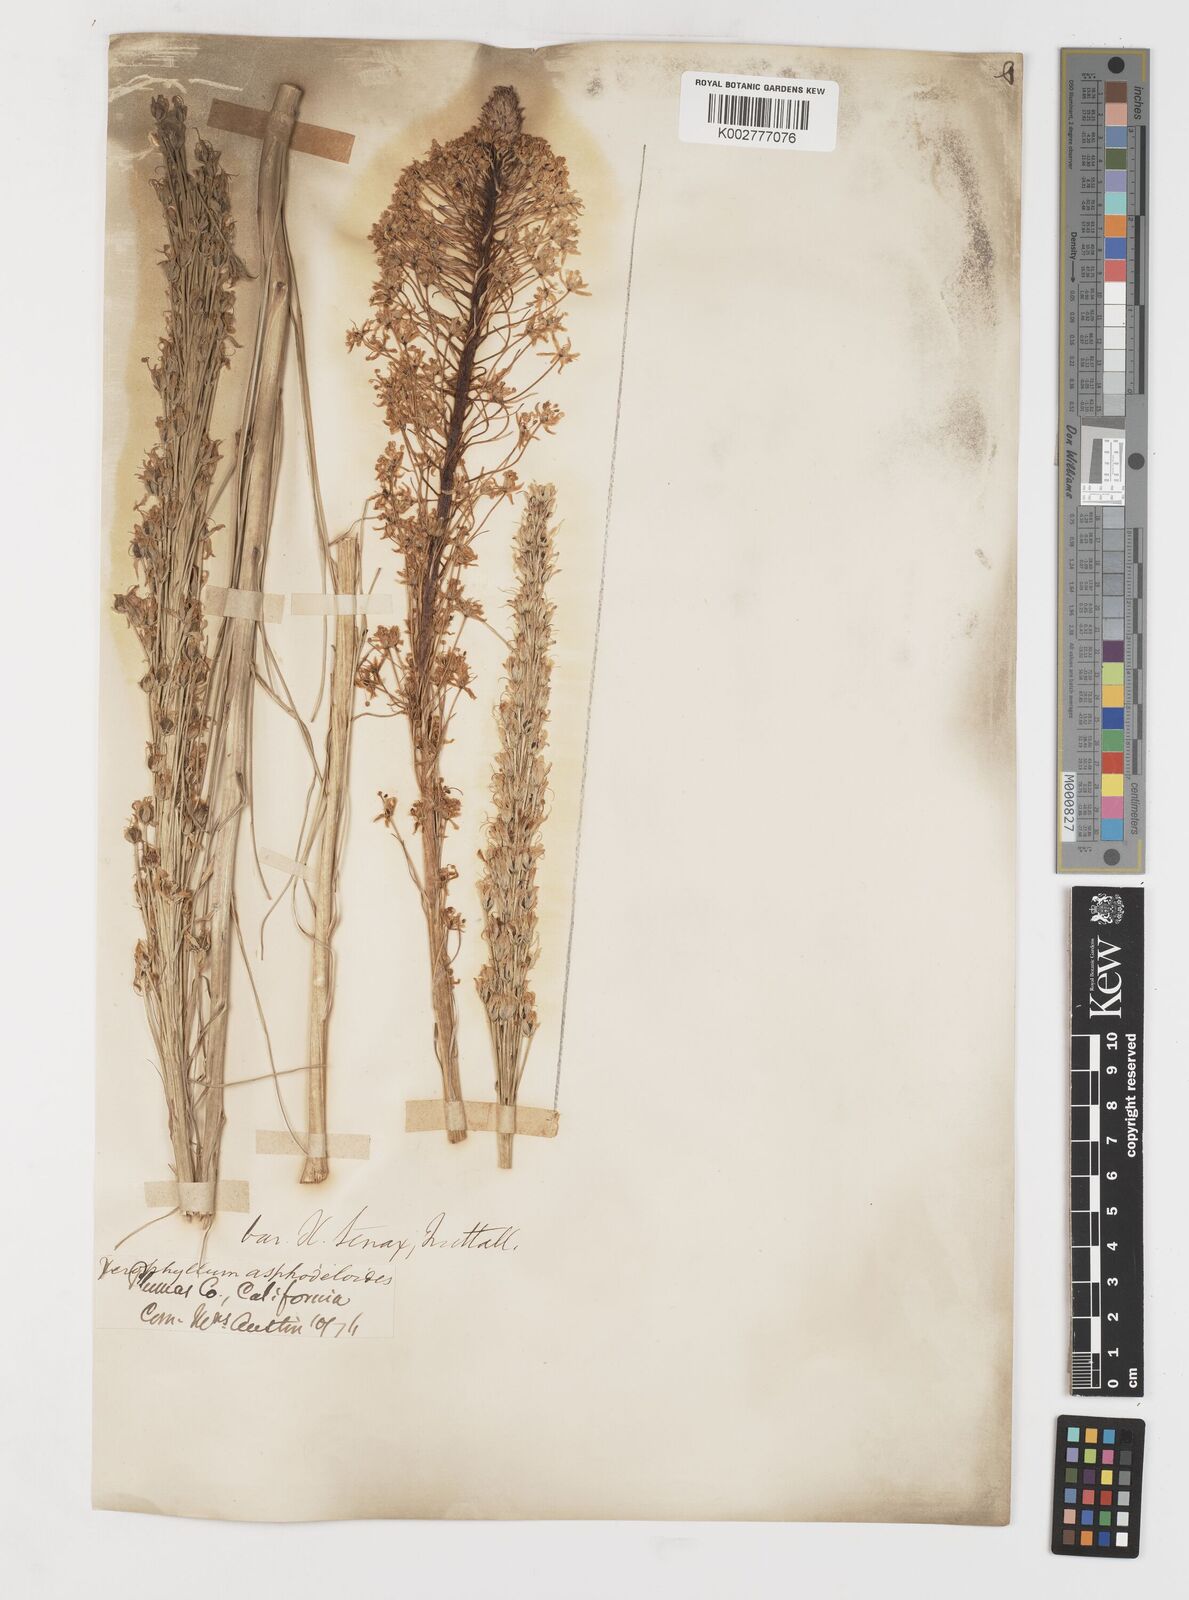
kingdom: Plantae
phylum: Tracheophyta
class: Liliopsida
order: Liliales
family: Melanthiaceae
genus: Xerophyllum
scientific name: Xerophyllum tenax
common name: Bear-grass
